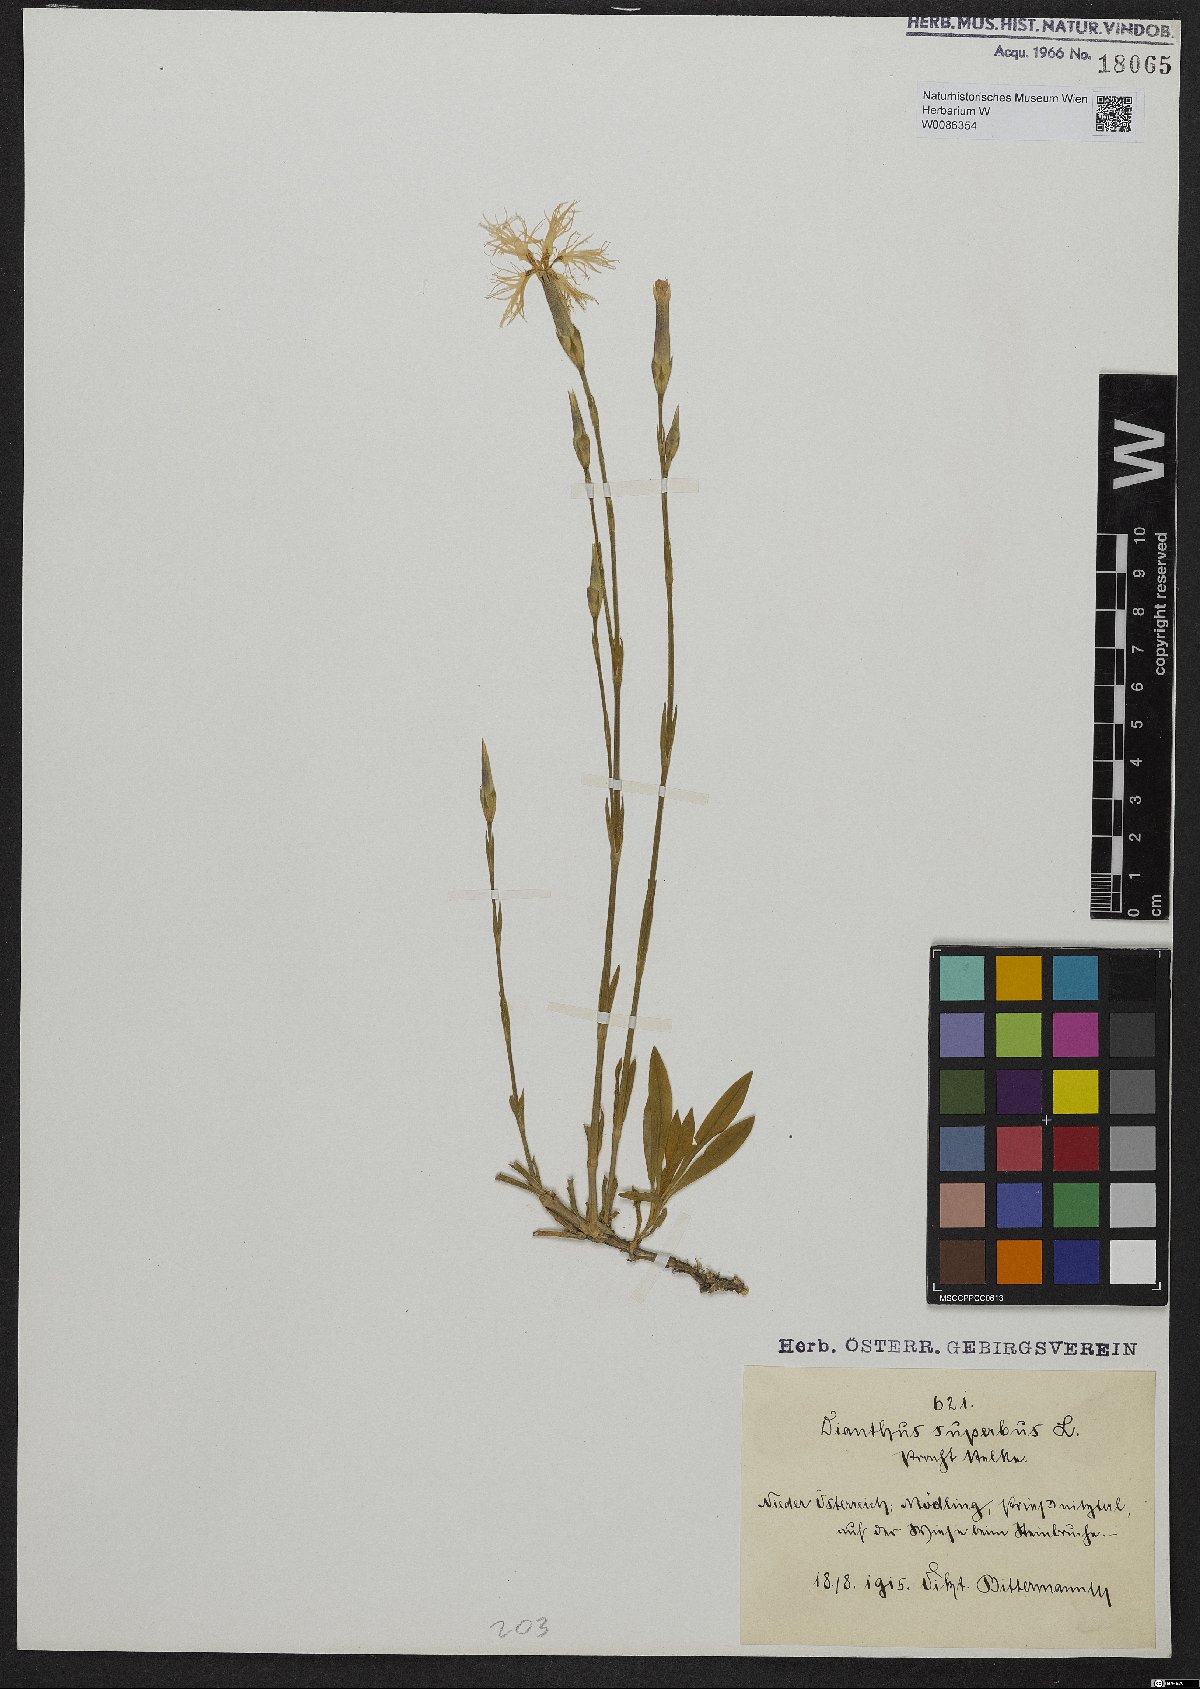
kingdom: Plantae
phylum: Tracheophyta
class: Magnoliopsida
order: Caryophyllales
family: Caryophyllaceae
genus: Dianthus
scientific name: Dianthus superbus
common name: Fringed pink
